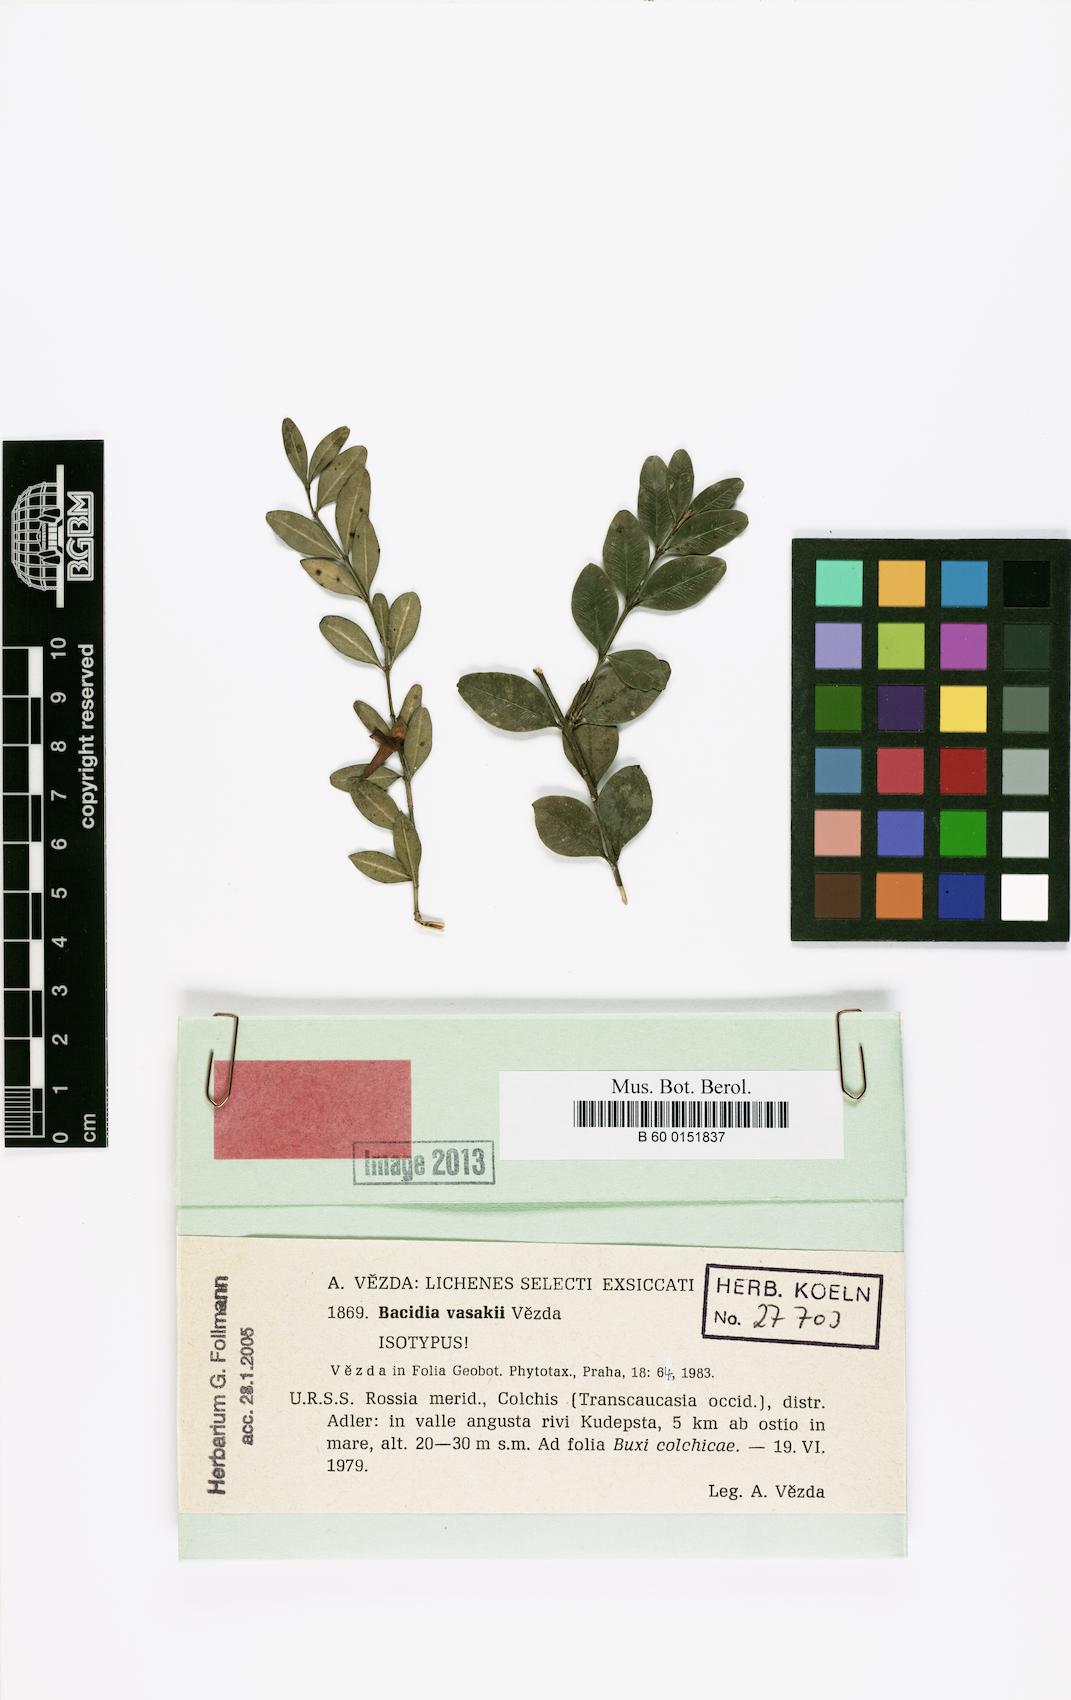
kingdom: Fungi
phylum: Ascomycota
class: Lecanoromycetes
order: Lecanorales
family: Ramalinaceae
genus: Bacidina
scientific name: Bacidina vasakii
